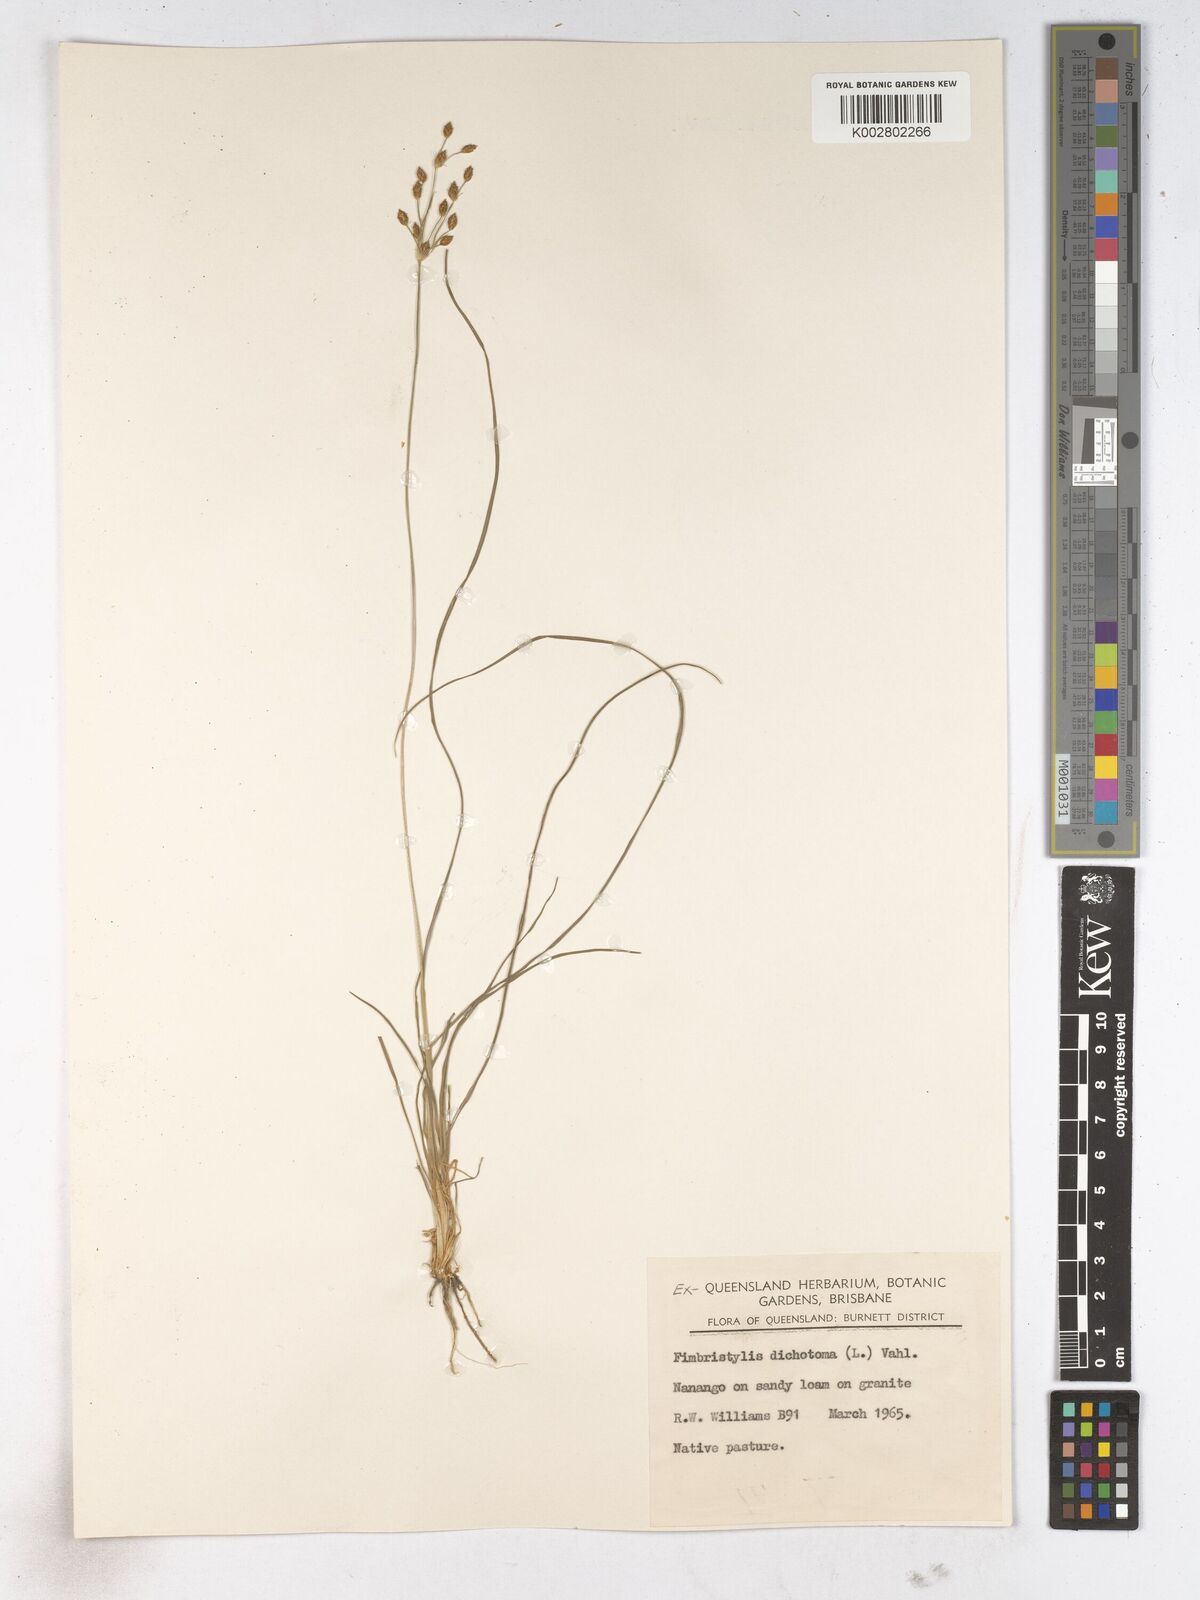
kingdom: Plantae
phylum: Tracheophyta
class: Liliopsida
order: Poales
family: Cyperaceae
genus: Fimbristylis
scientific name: Fimbristylis dichotoma
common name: Forked fimbry
